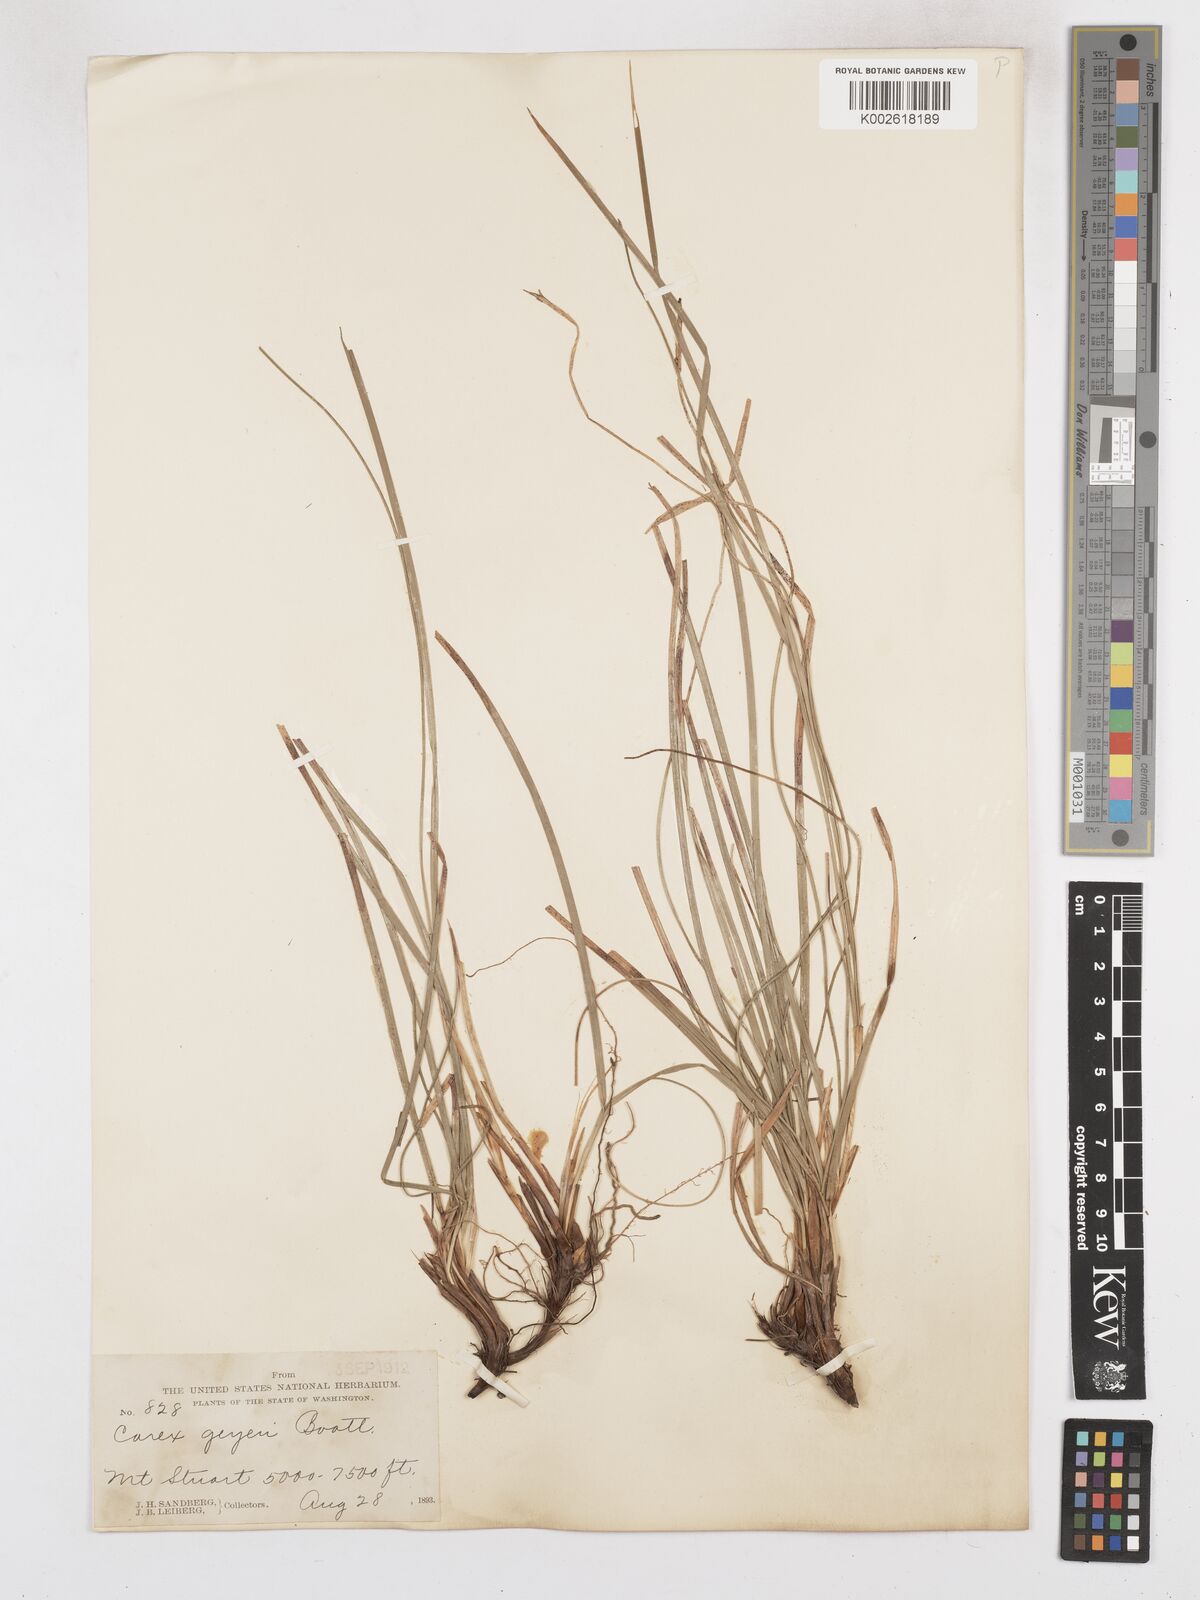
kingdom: Plantae
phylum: Tracheophyta
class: Liliopsida
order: Poales
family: Cyperaceae
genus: Carex
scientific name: Carex geyeri
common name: Elk sedge
